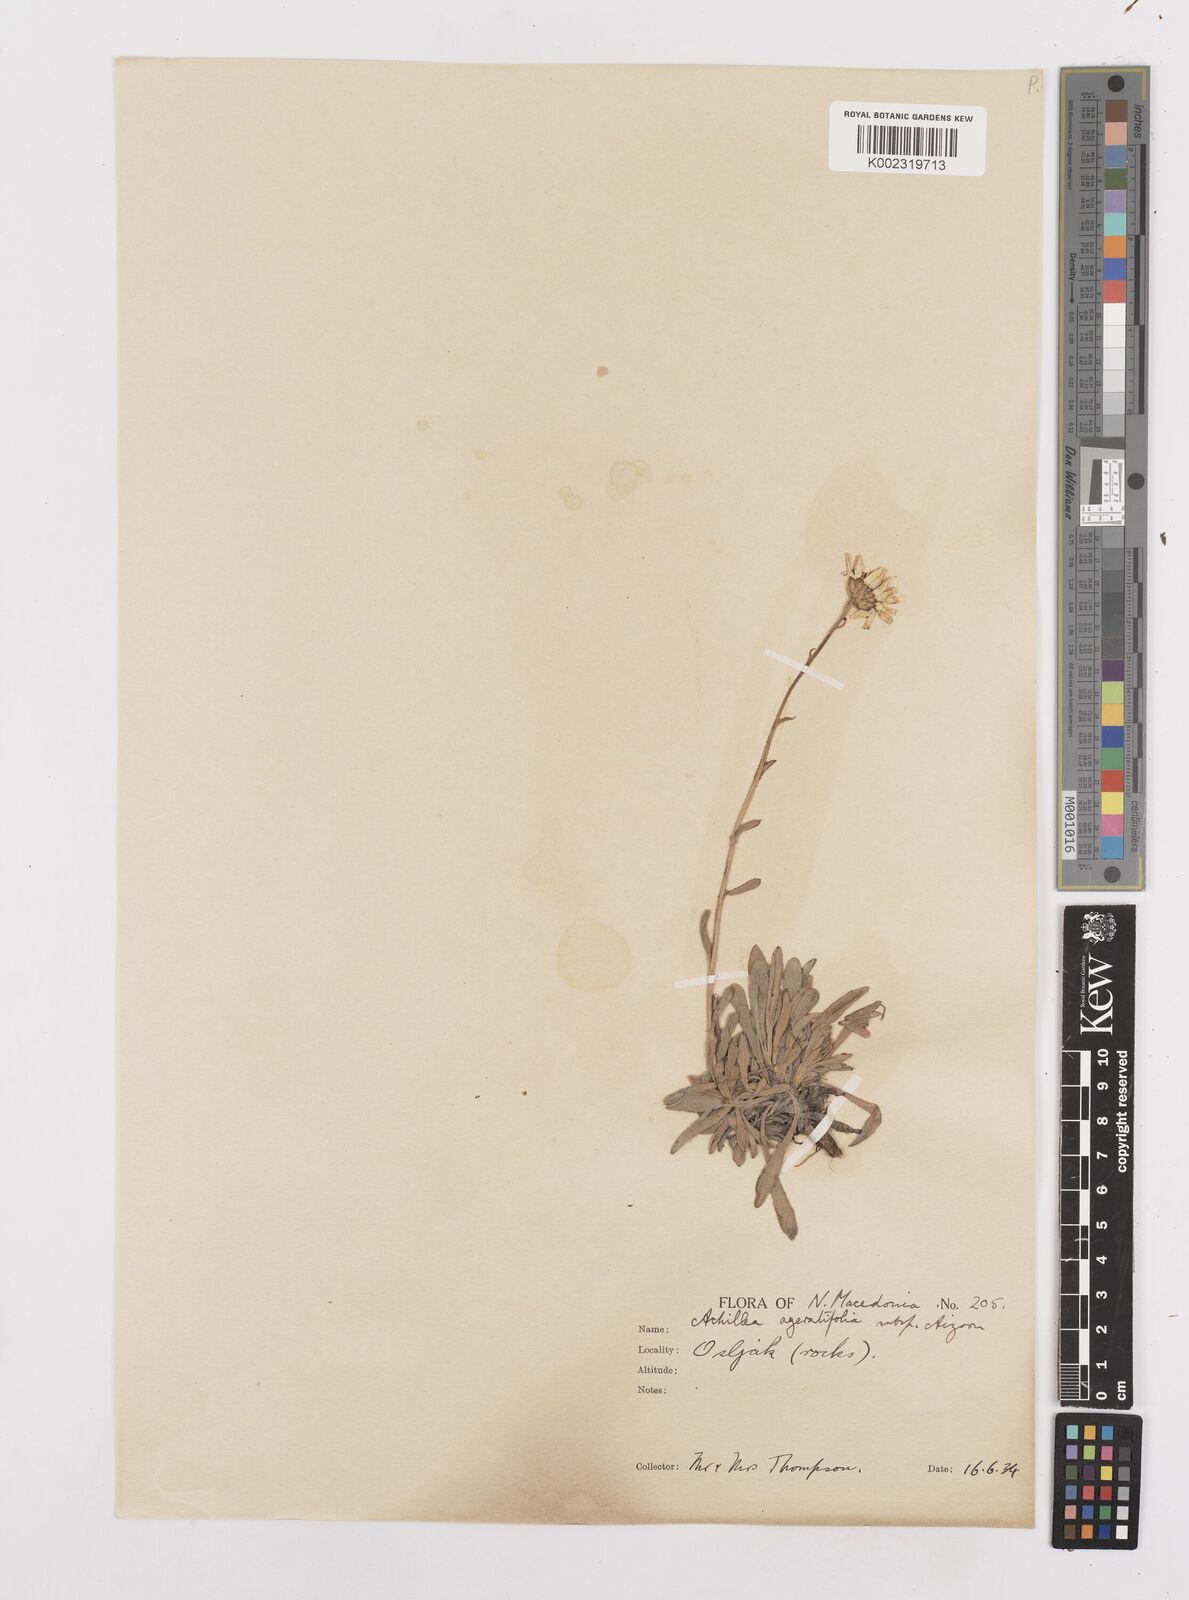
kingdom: Plantae
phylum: Tracheophyta
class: Magnoliopsida
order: Asterales
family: Asteraceae
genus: Achillea
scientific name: Achillea ageratifolia
